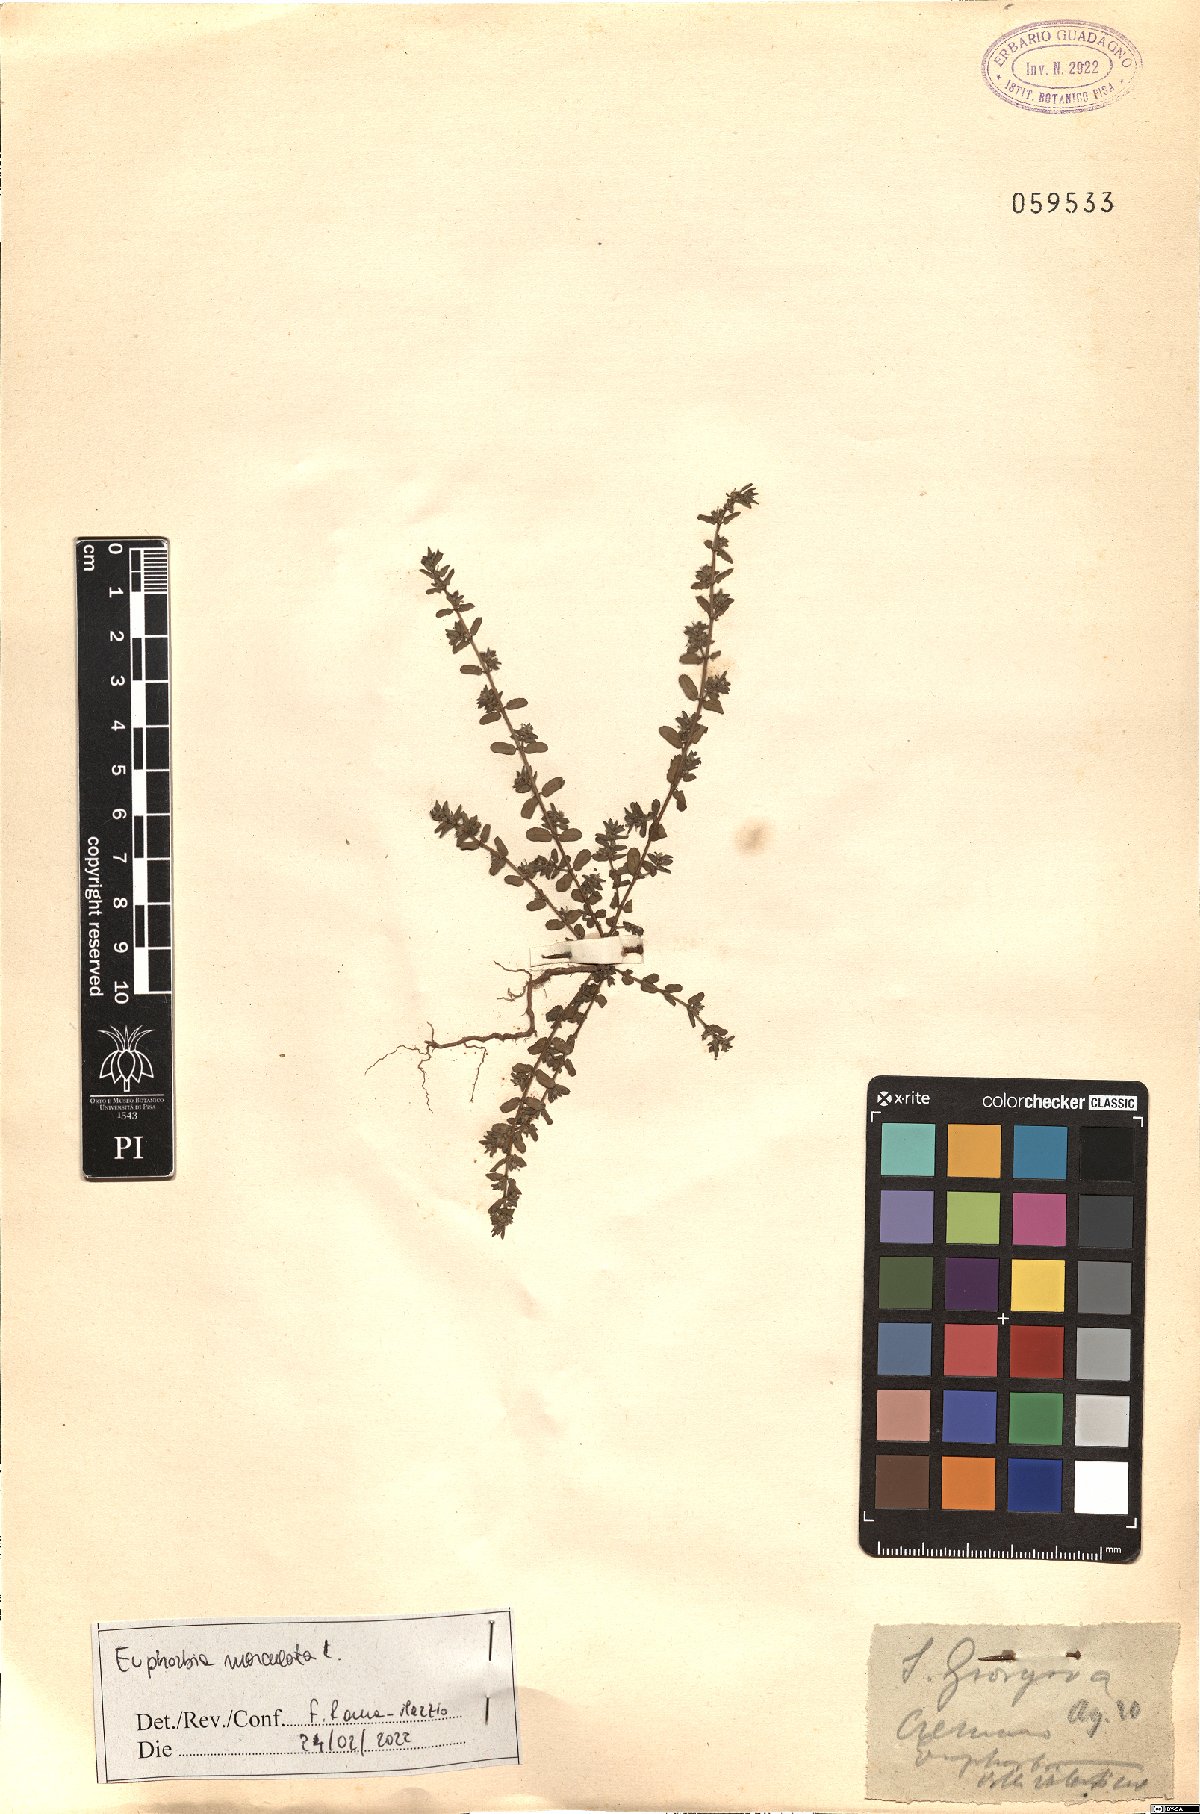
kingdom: Plantae
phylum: Tracheophyta
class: Magnoliopsida
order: Malpighiales
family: Euphorbiaceae
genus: Euphorbia
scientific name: Euphorbia maculata
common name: Spotted spurge
